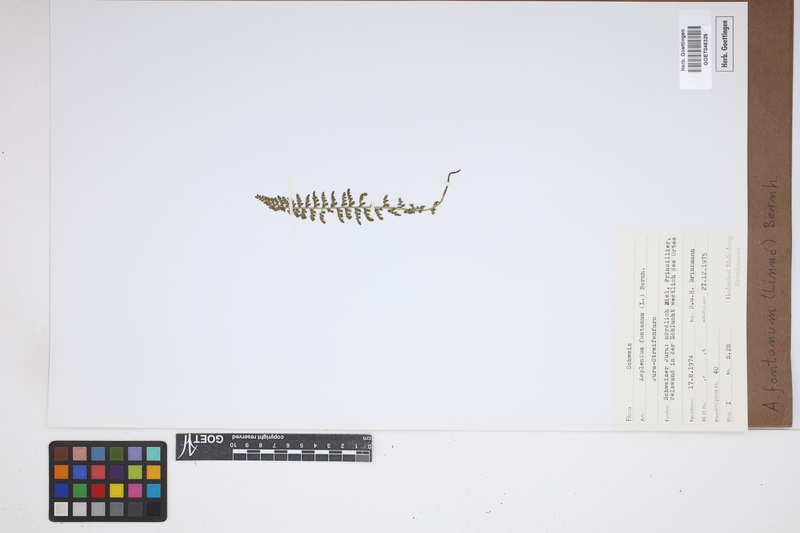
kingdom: Plantae
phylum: Tracheophyta
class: Polypodiopsida
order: Polypodiales
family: Aspleniaceae
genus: Asplenium
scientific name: Asplenium fontanum
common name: Fountain spleenwort
